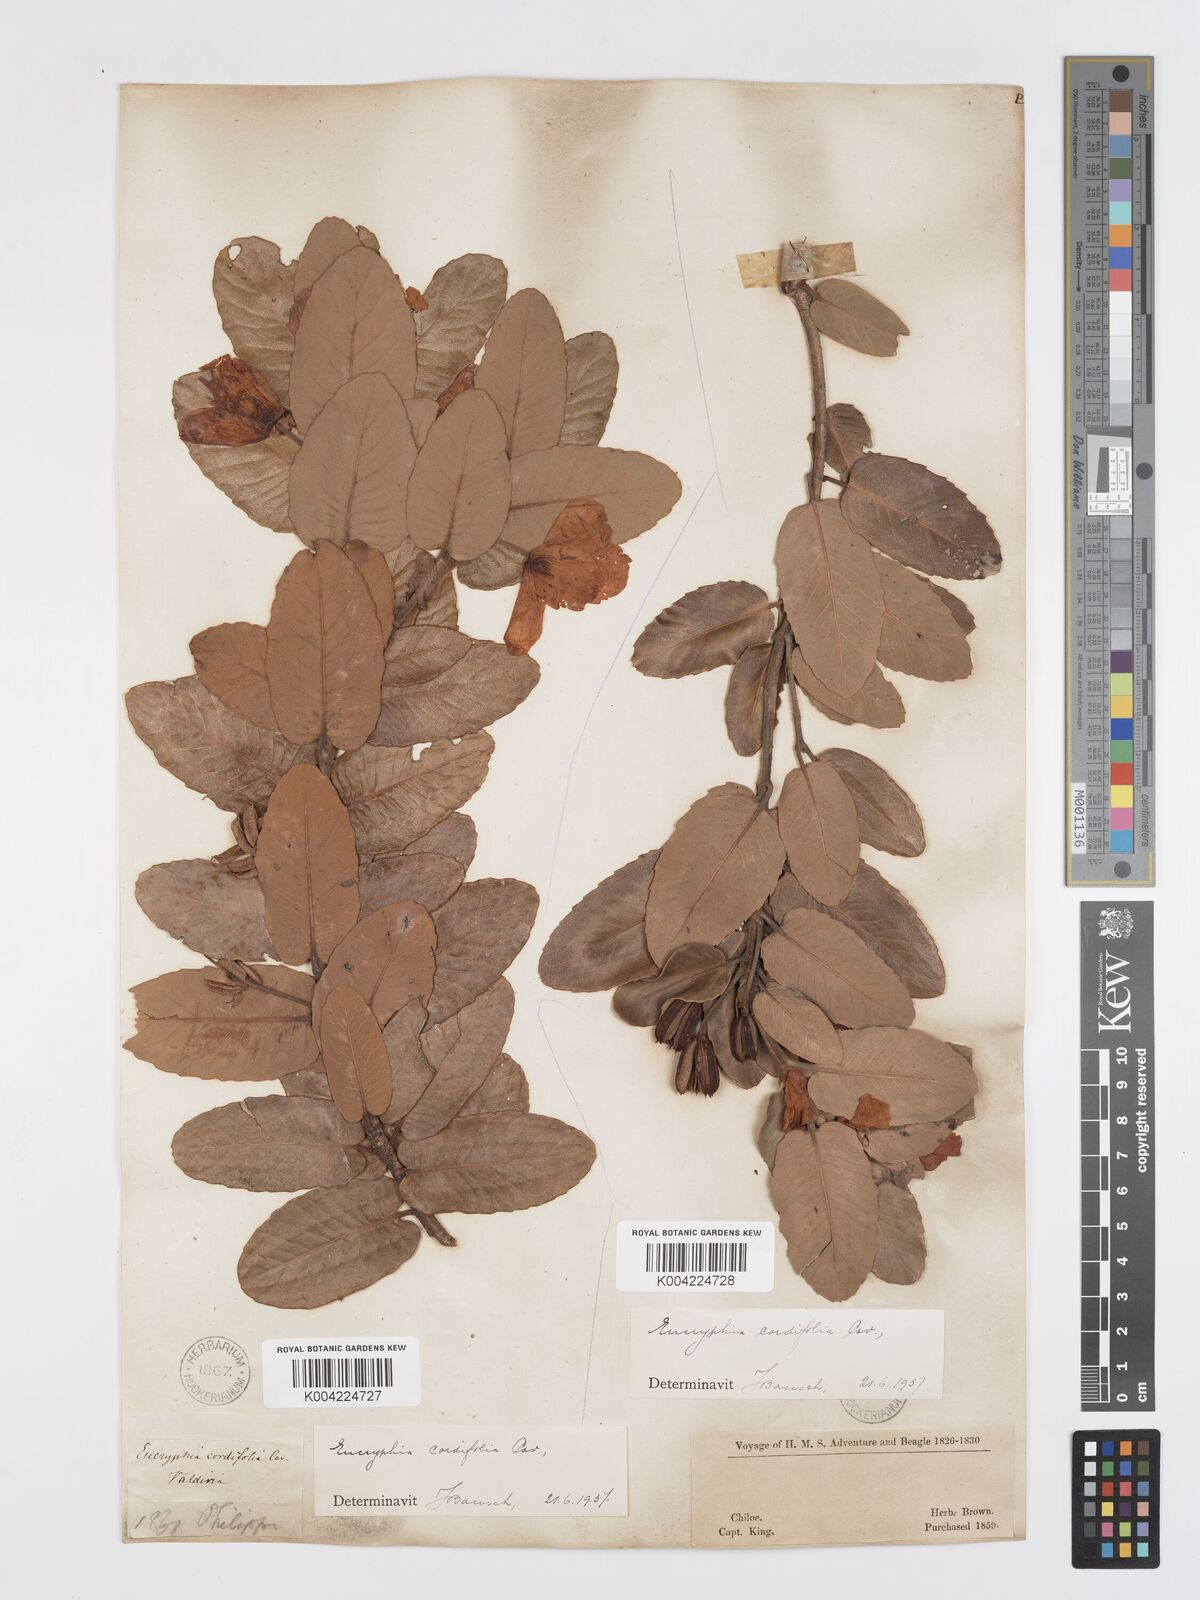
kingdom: Plantae
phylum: Tracheophyta
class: Magnoliopsida
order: Oxalidales
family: Cunoniaceae
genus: Eucryphia
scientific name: Eucryphia cordifolia
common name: Ulmo
